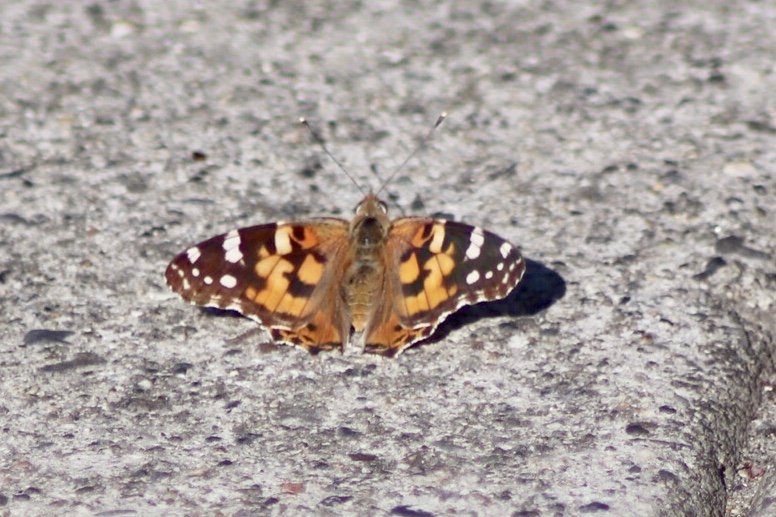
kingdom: Animalia
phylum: Arthropoda
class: Insecta
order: Lepidoptera
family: Nymphalidae
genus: Vanessa
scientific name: Vanessa cardui
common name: Painted Lady
